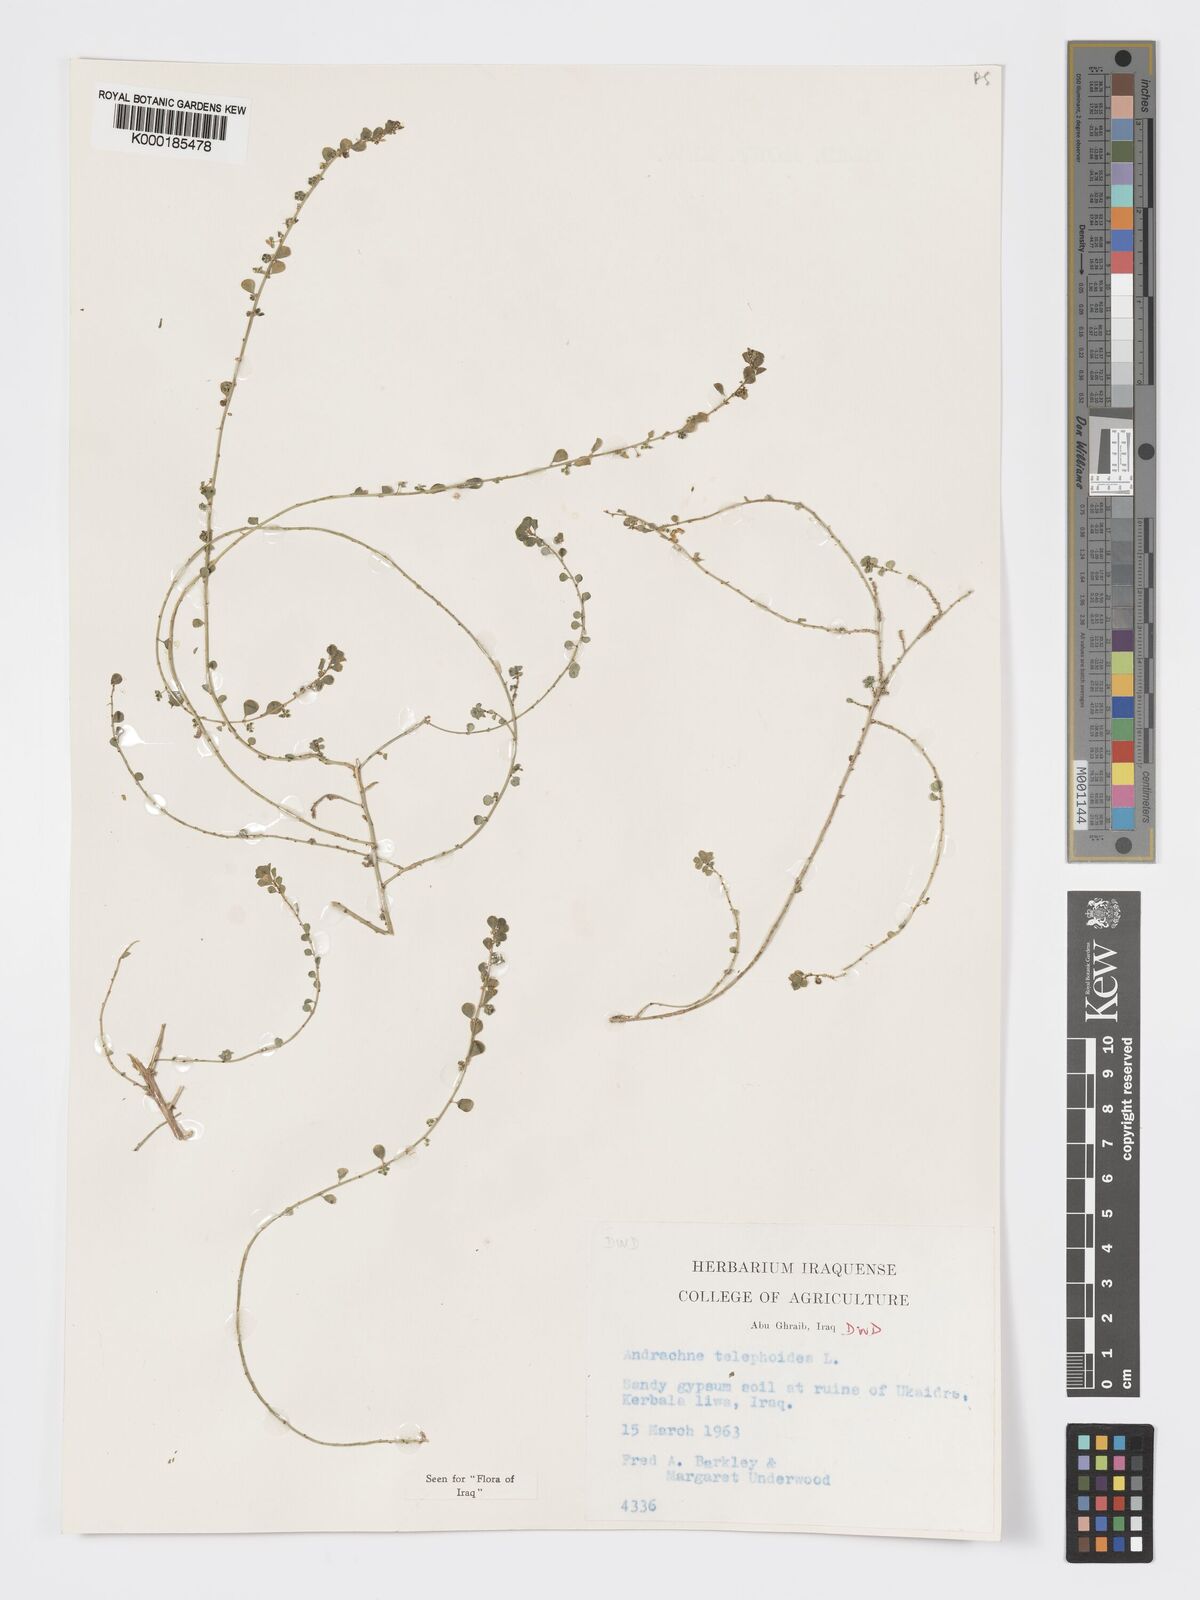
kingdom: Plantae
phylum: Tracheophyta
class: Magnoliopsida
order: Malpighiales
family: Phyllanthaceae
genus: Andrachne
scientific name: Andrachne telephioides
